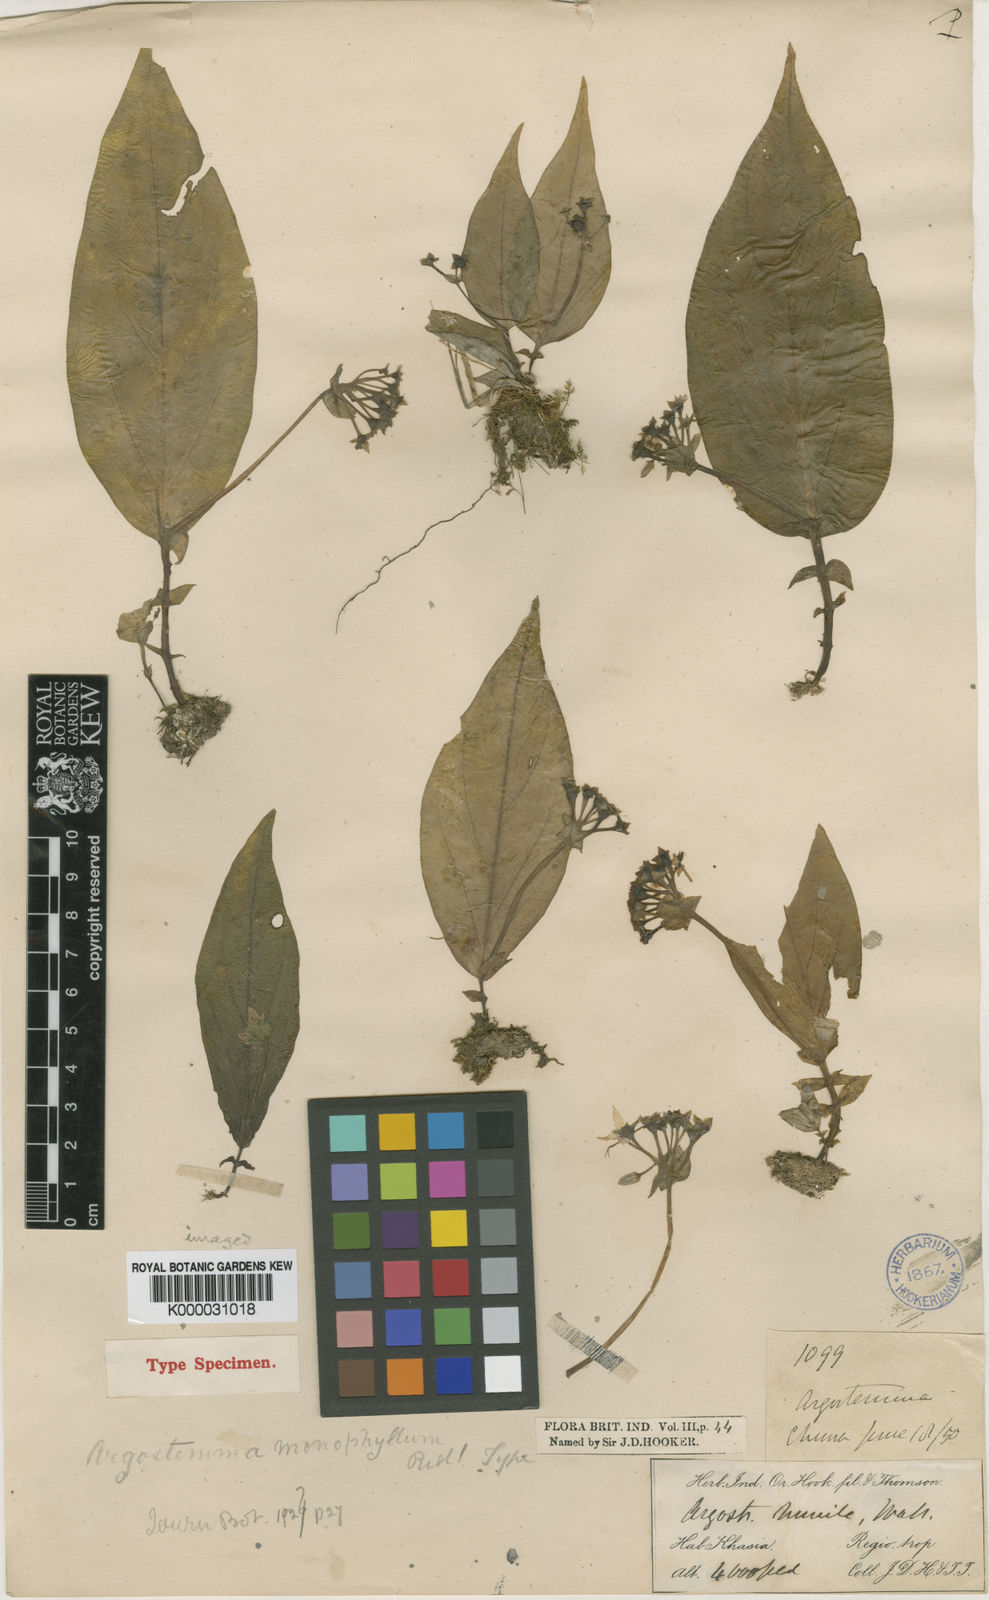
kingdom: Plantae
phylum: Tracheophyta
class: Magnoliopsida
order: Gentianales
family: Rubiaceae
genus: Argostemma
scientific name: Argostemma monophyllum
